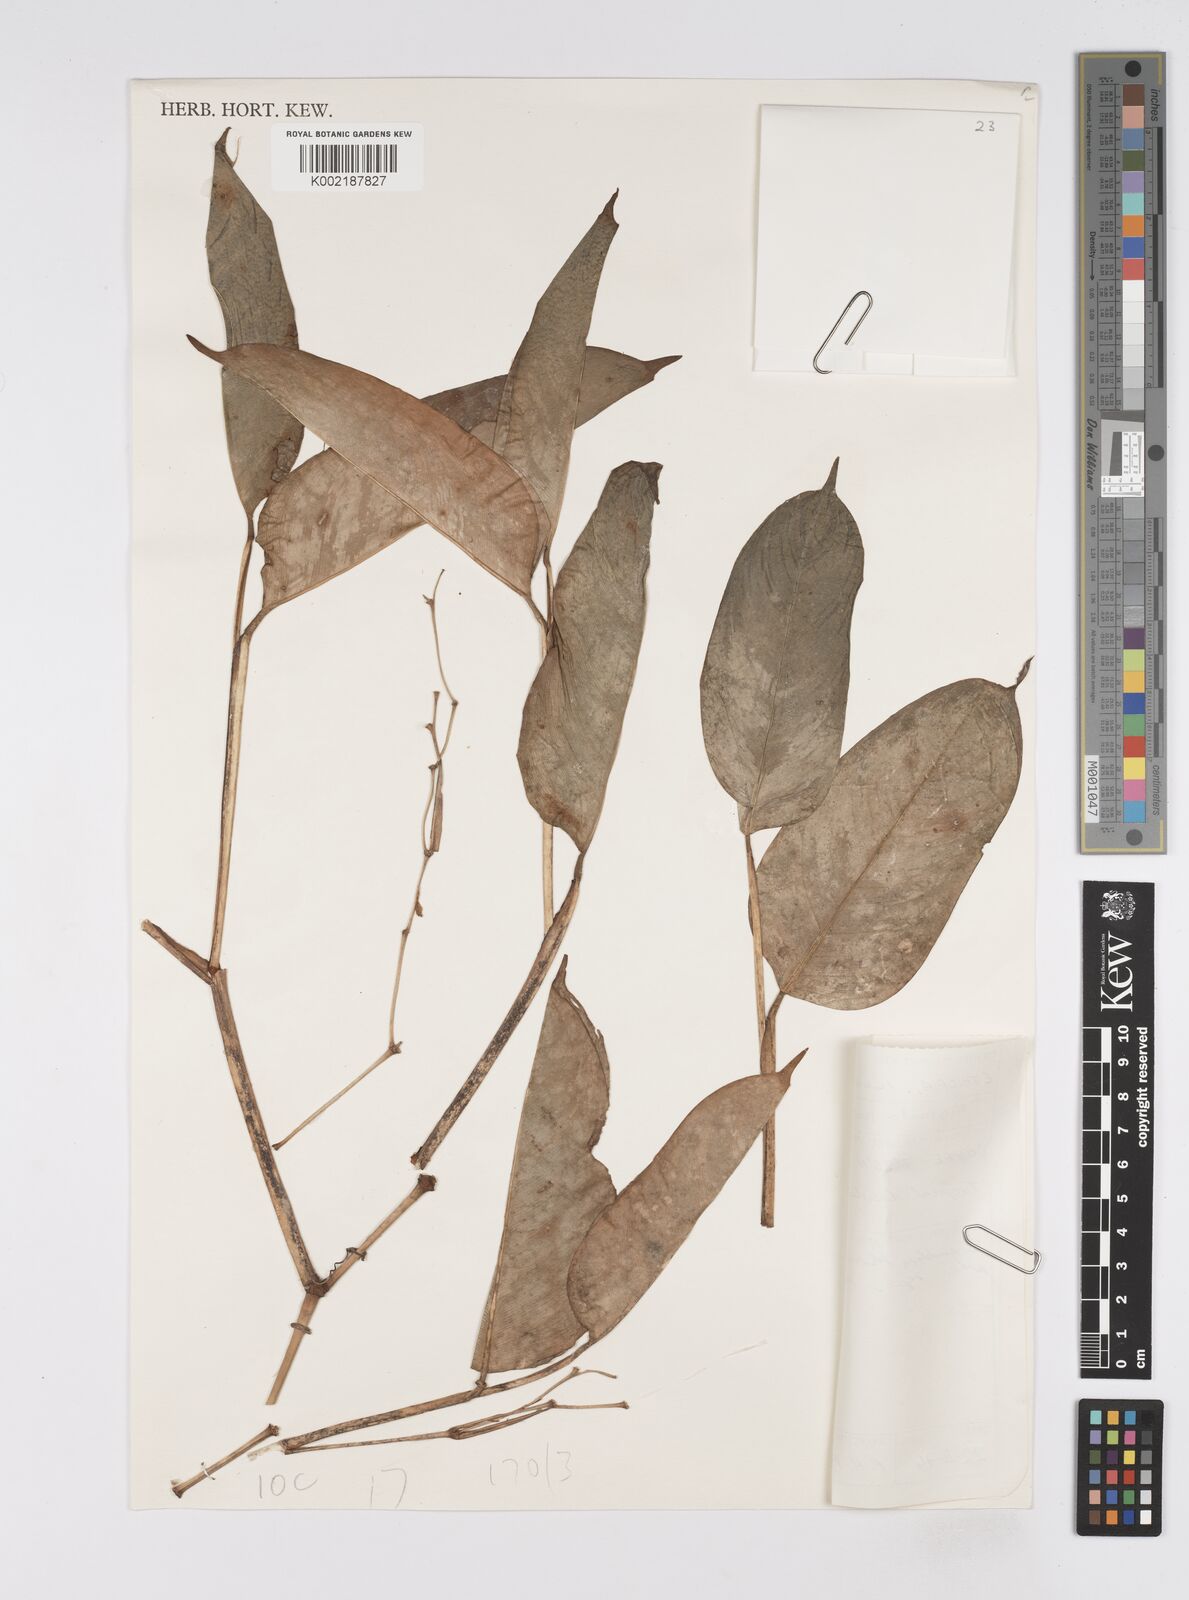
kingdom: Plantae
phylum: Tracheophyta
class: Liliopsida
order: Zingiberales
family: Marantaceae
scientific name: Marantaceae
